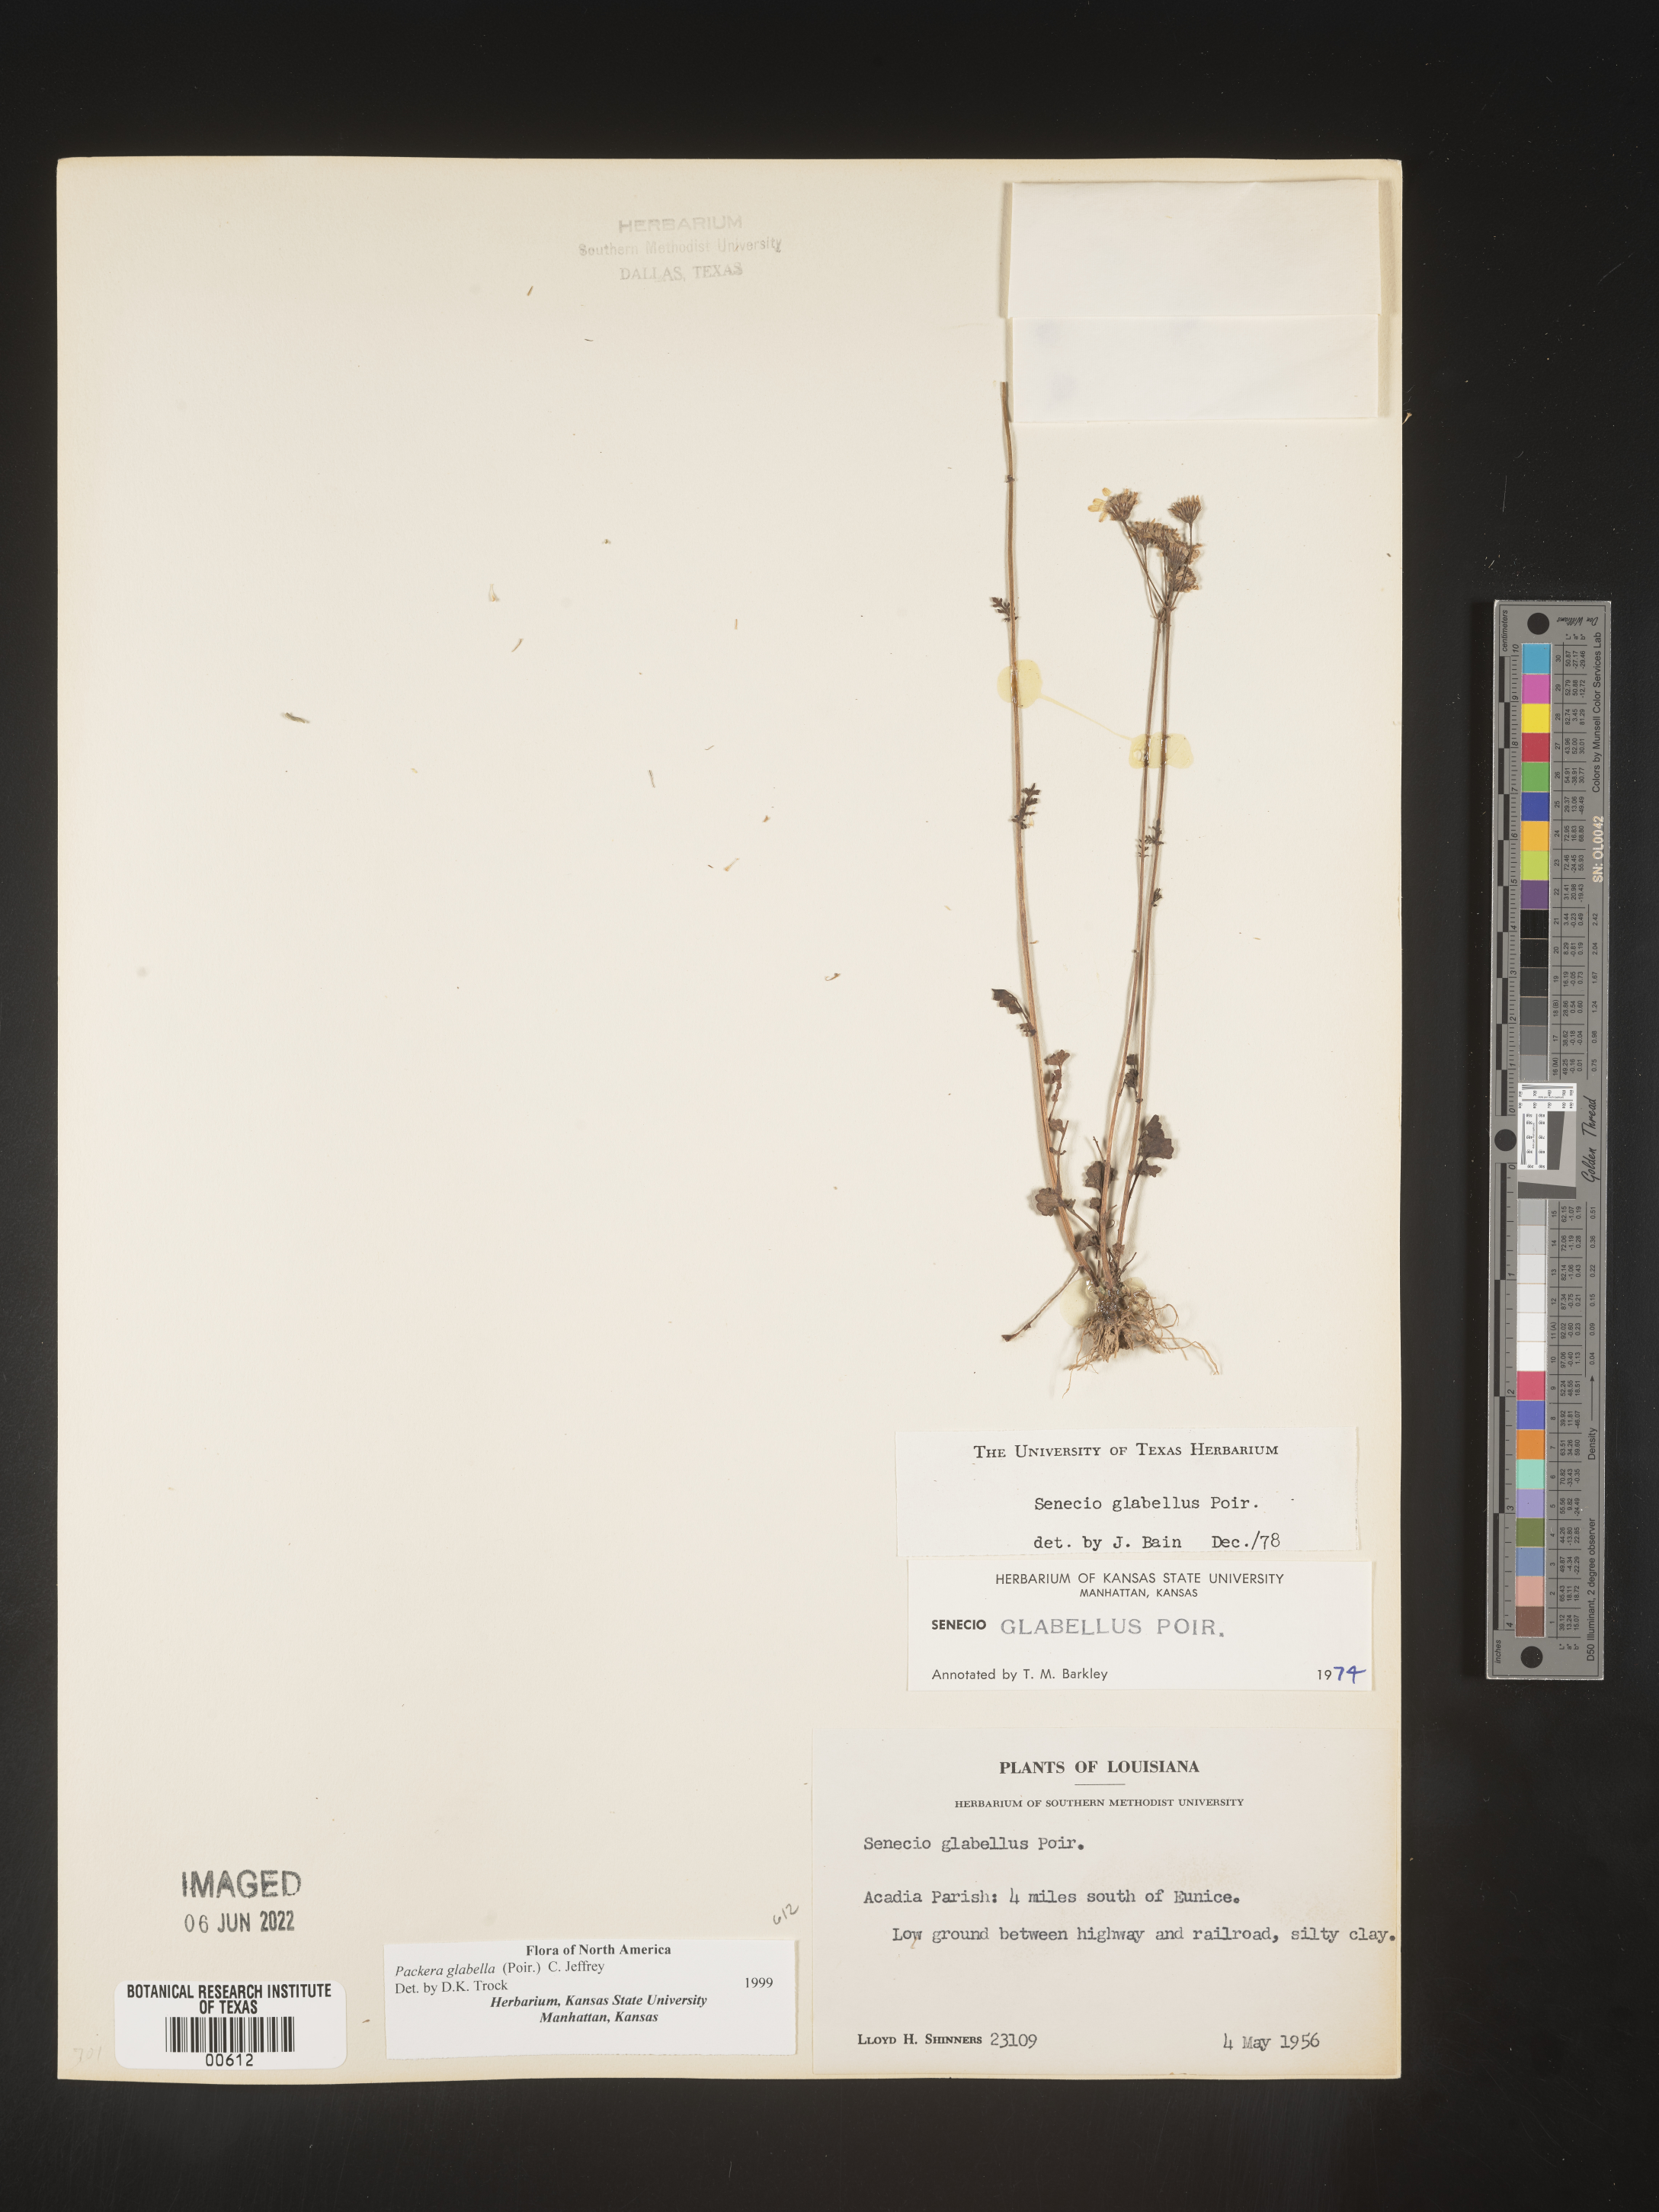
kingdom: Plantae
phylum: Tracheophyta
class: Magnoliopsida
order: Asterales
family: Asteraceae
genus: Packera
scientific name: Packera glabella
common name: Butterweed
